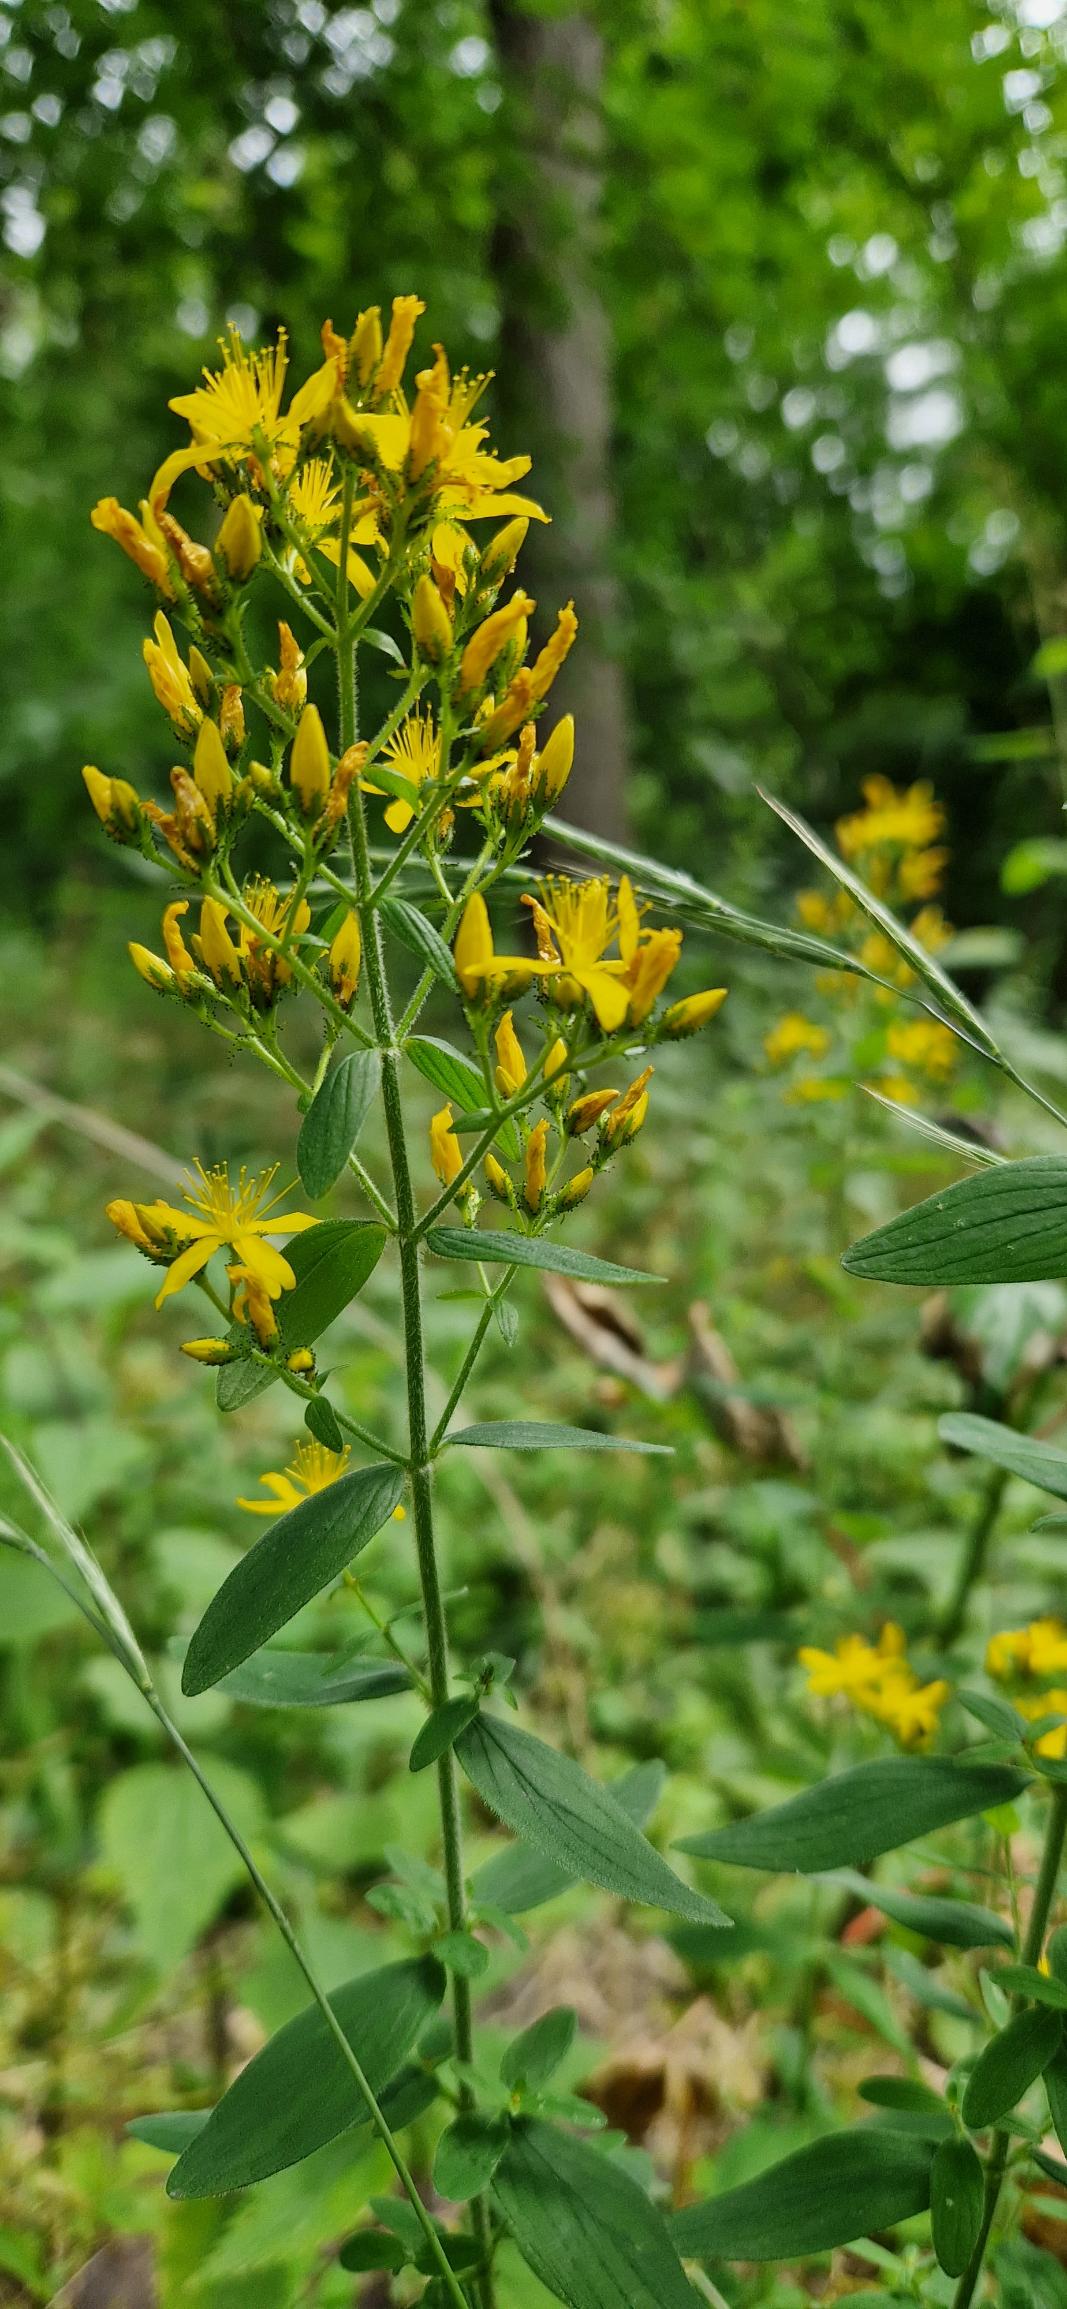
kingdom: Plantae
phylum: Tracheophyta
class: Magnoliopsida
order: Malpighiales
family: Hypericaceae
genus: Hypericum
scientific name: Hypericum hirsutum
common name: Lådden perikon
